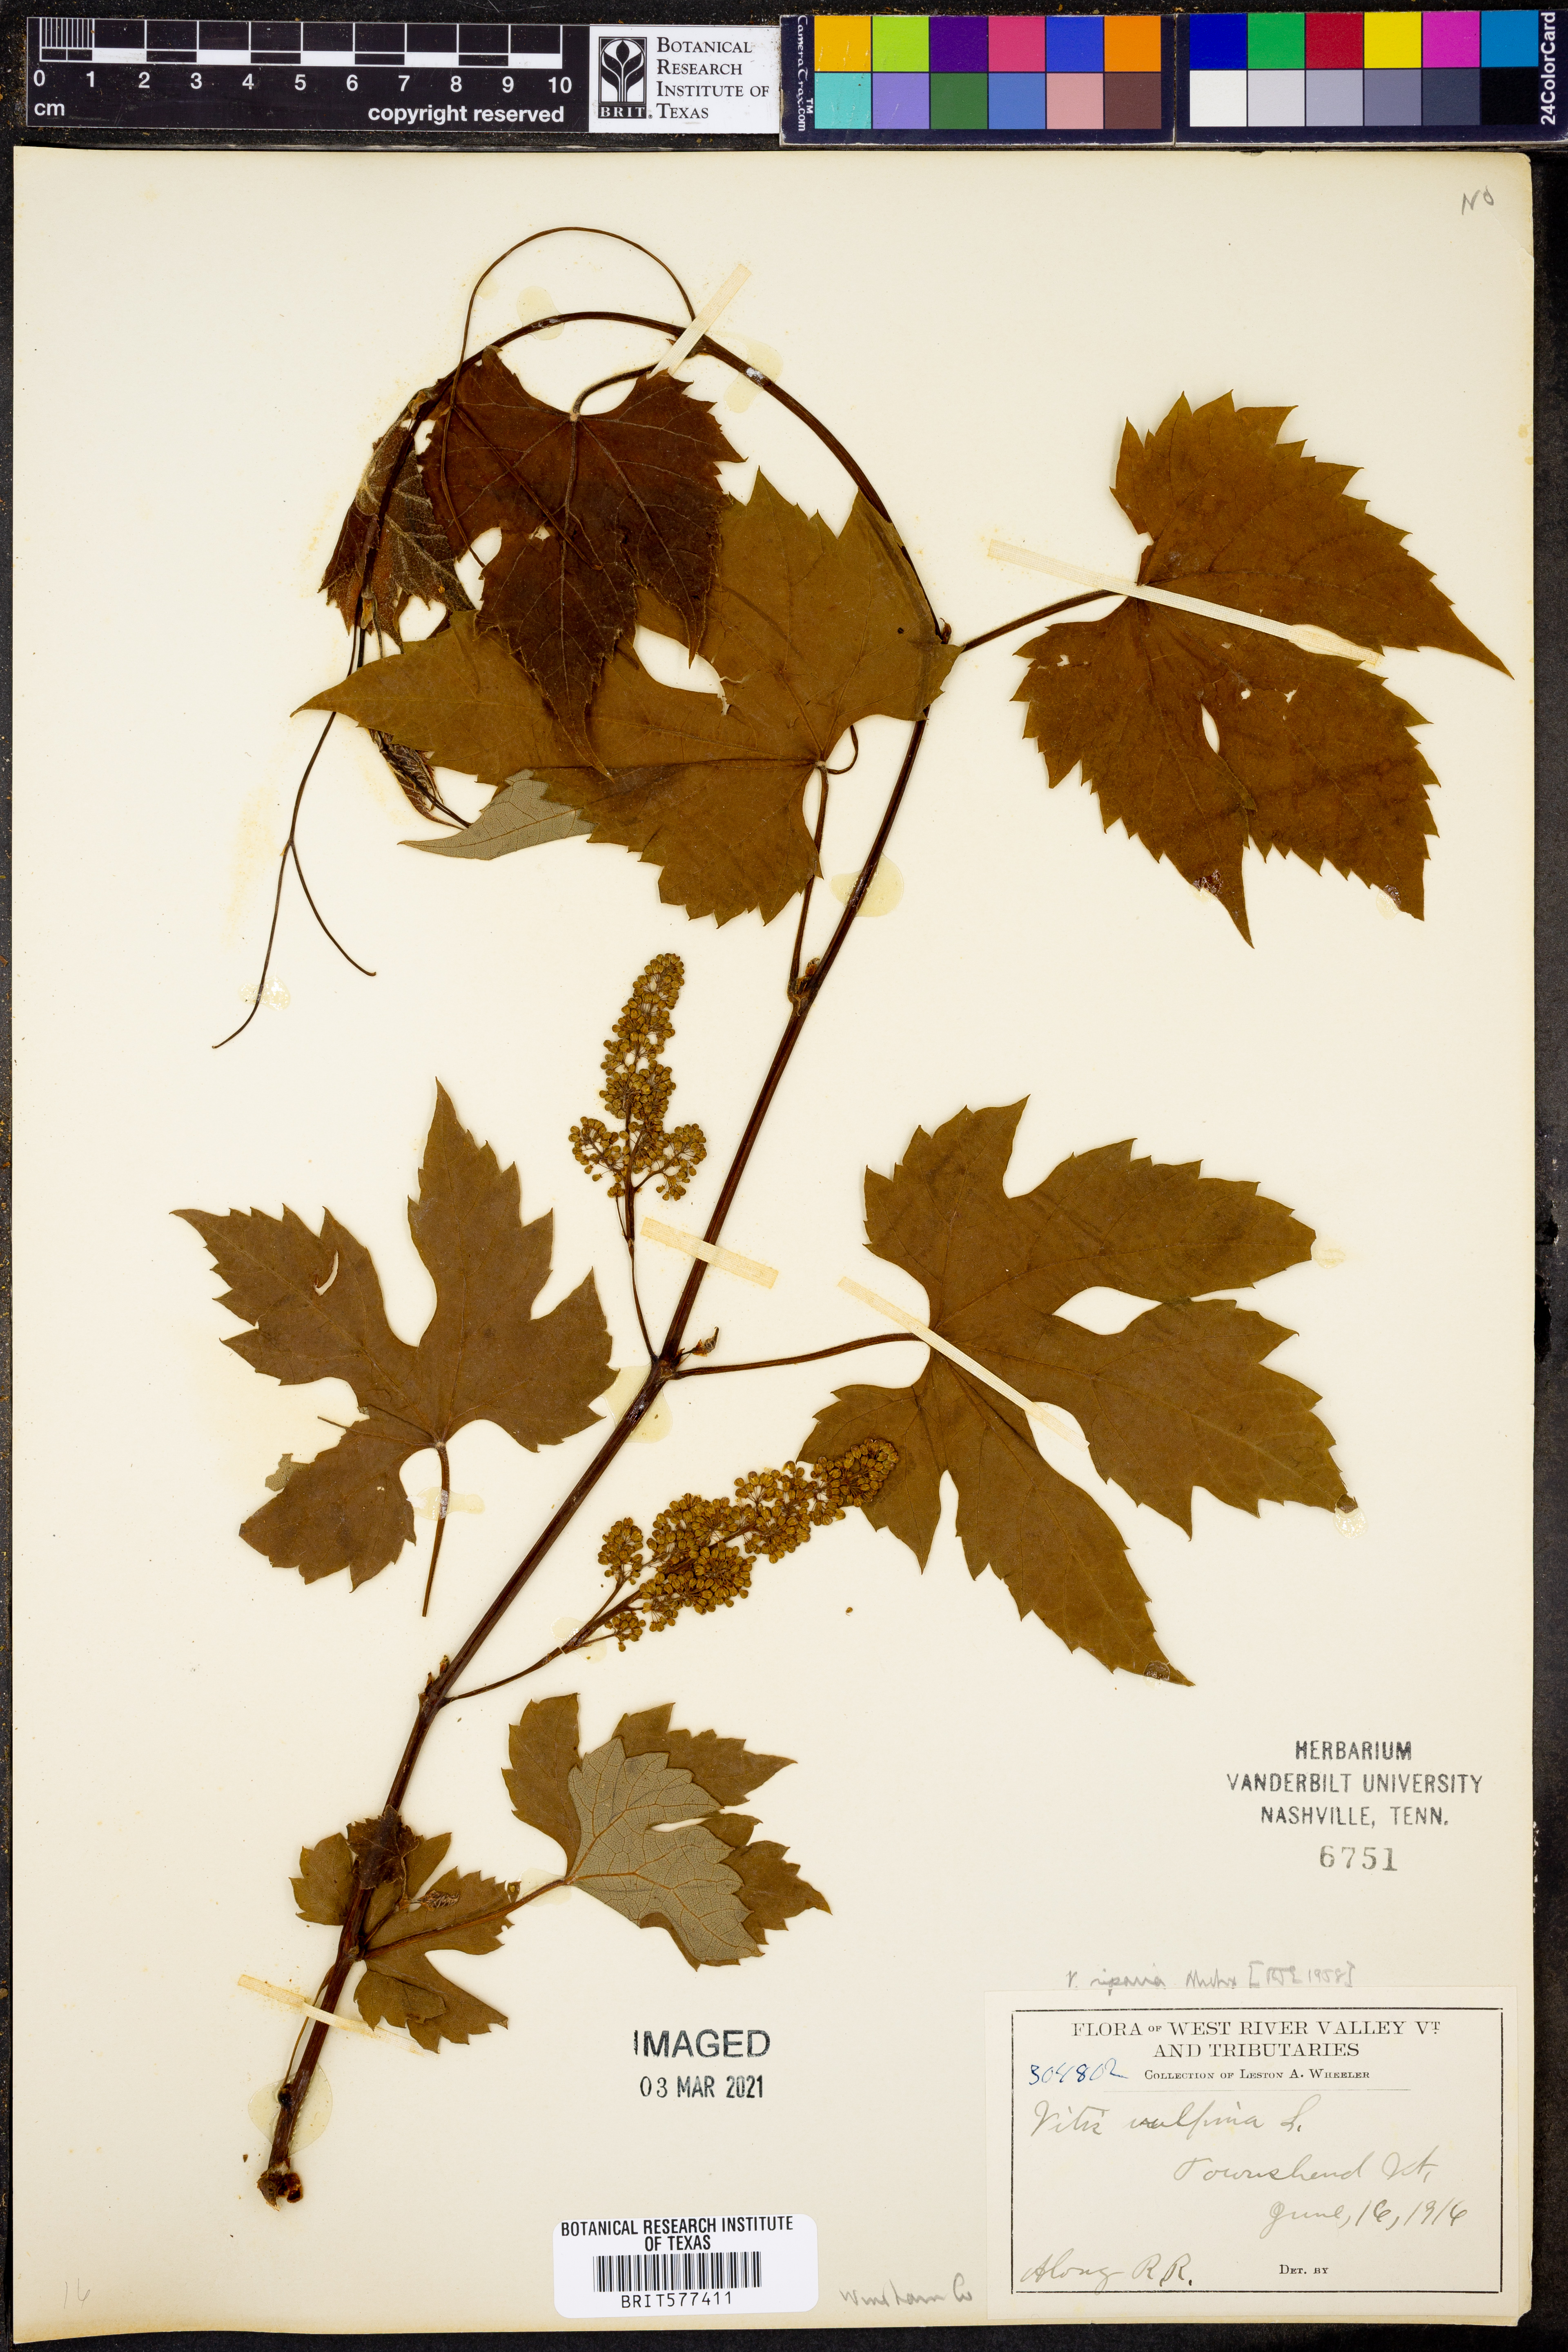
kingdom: Plantae
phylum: Tracheophyta
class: Magnoliopsida
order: Vitales
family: Vitaceae
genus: Vitis
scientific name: Vitis riparia
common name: Frost grape
